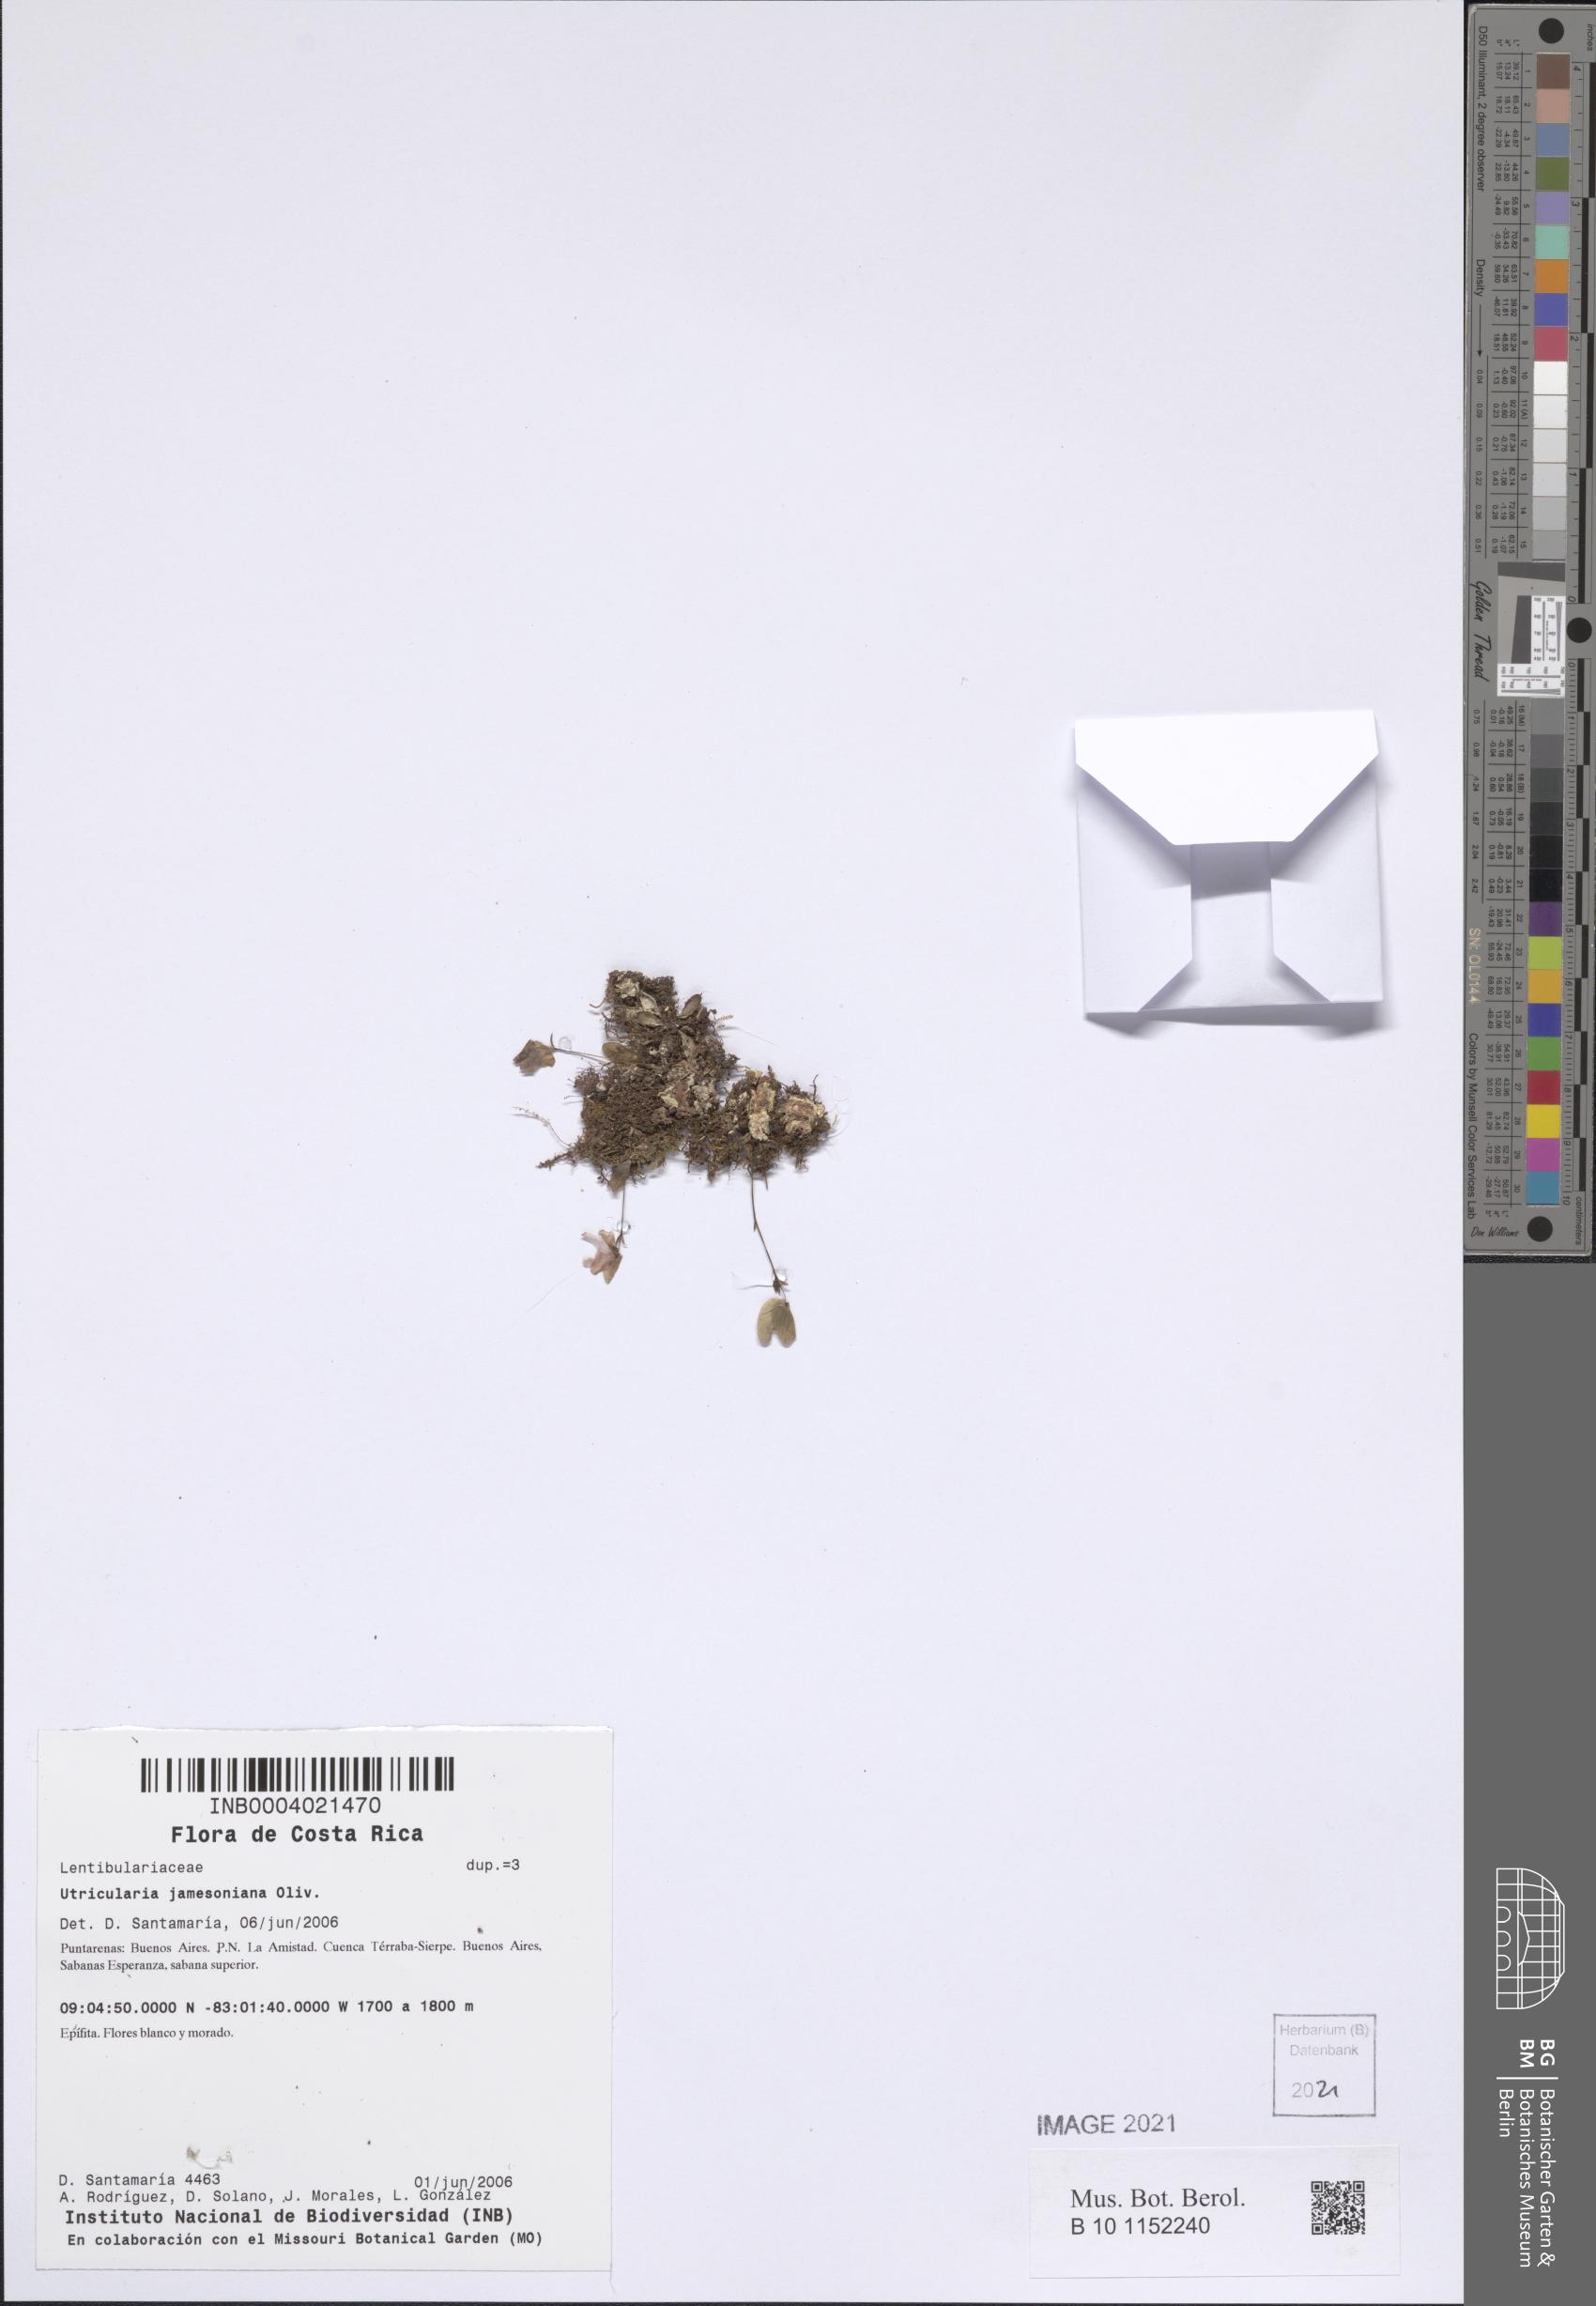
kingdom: Plantae
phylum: Tracheophyta
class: Magnoliopsida
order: Lamiales
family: Lentibulariaceae
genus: Utricularia
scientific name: Utricularia jamesoniana
